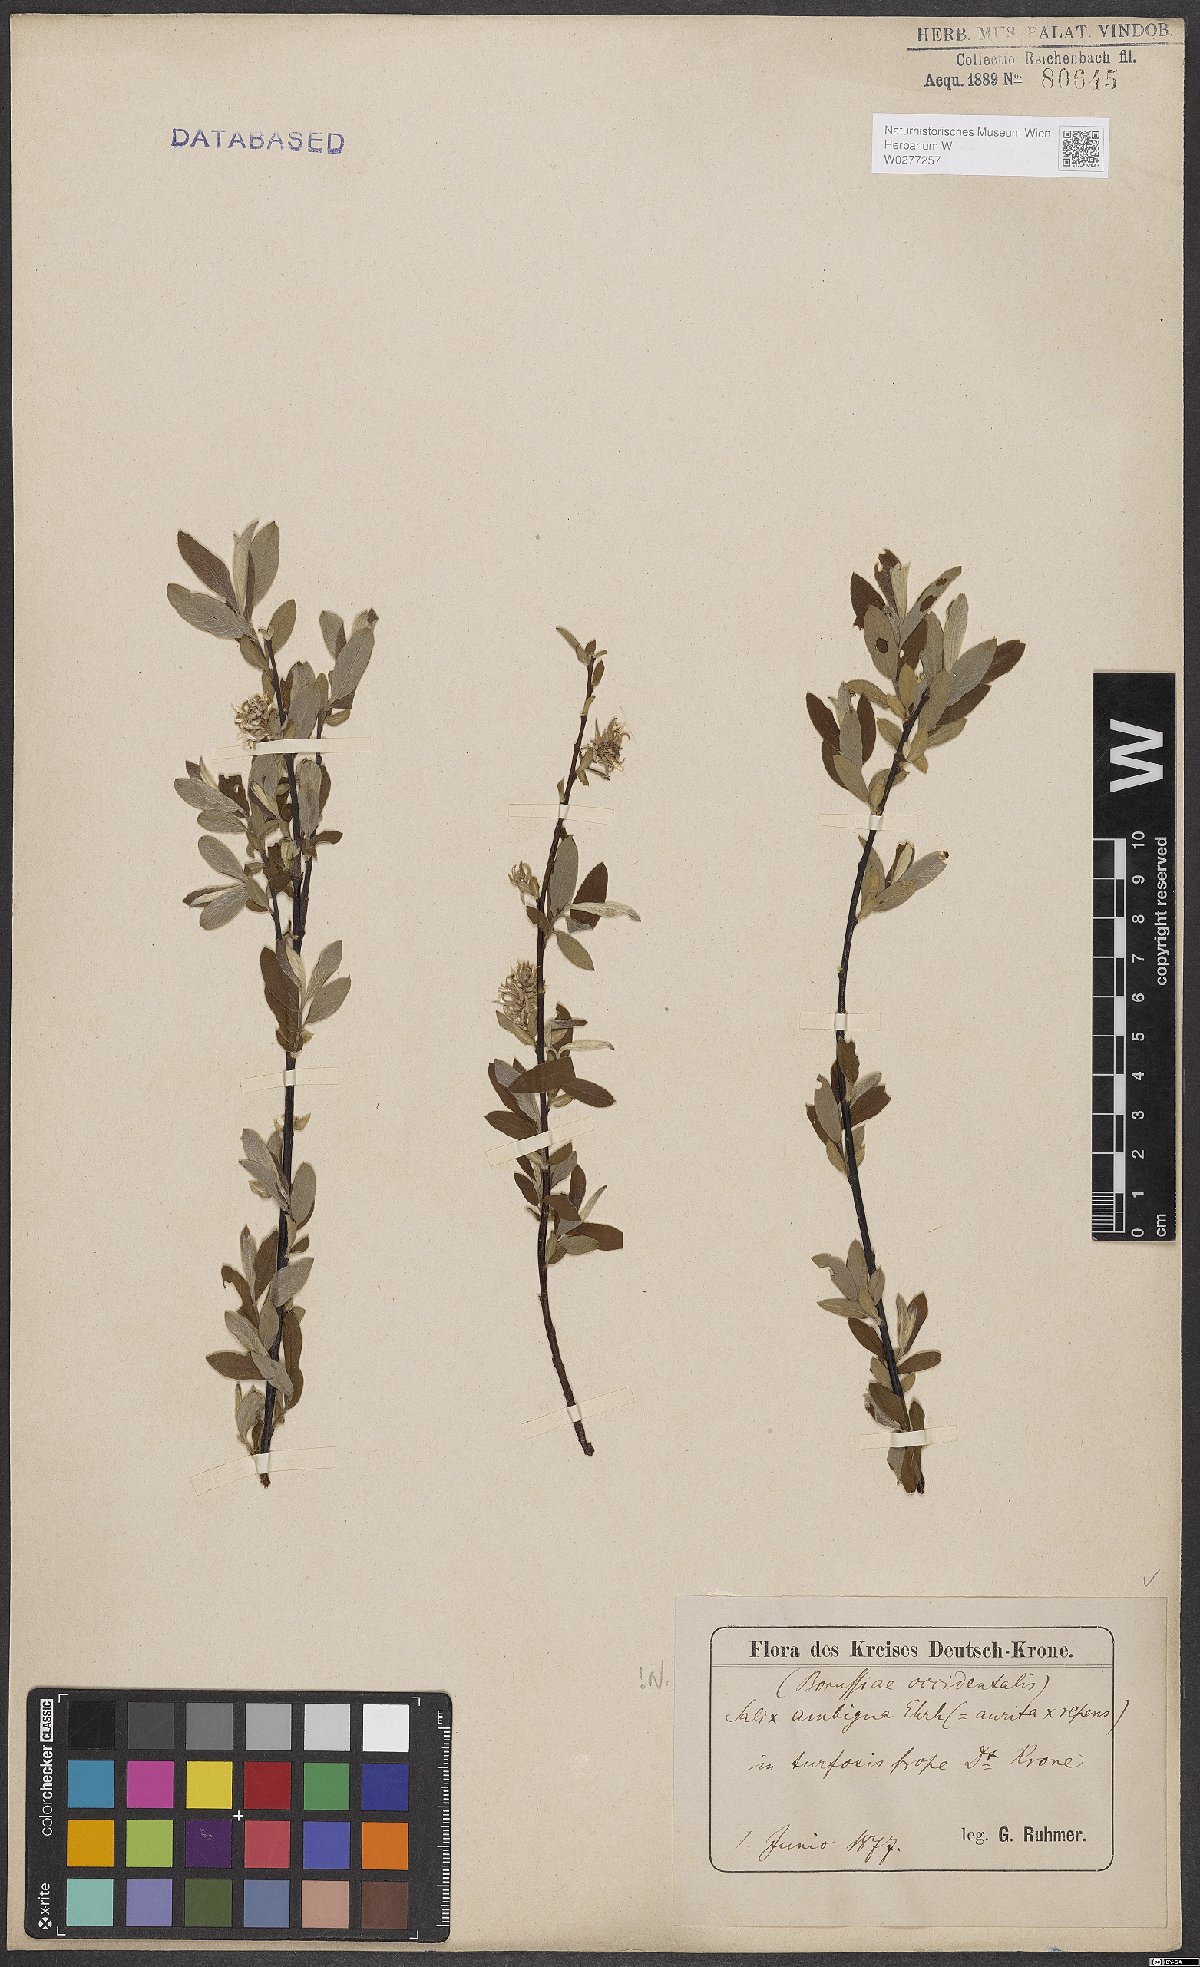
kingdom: Plantae
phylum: Tracheophyta
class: Magnoliopsida
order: Malpighiales
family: Salicaceae
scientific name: Salicaceae
